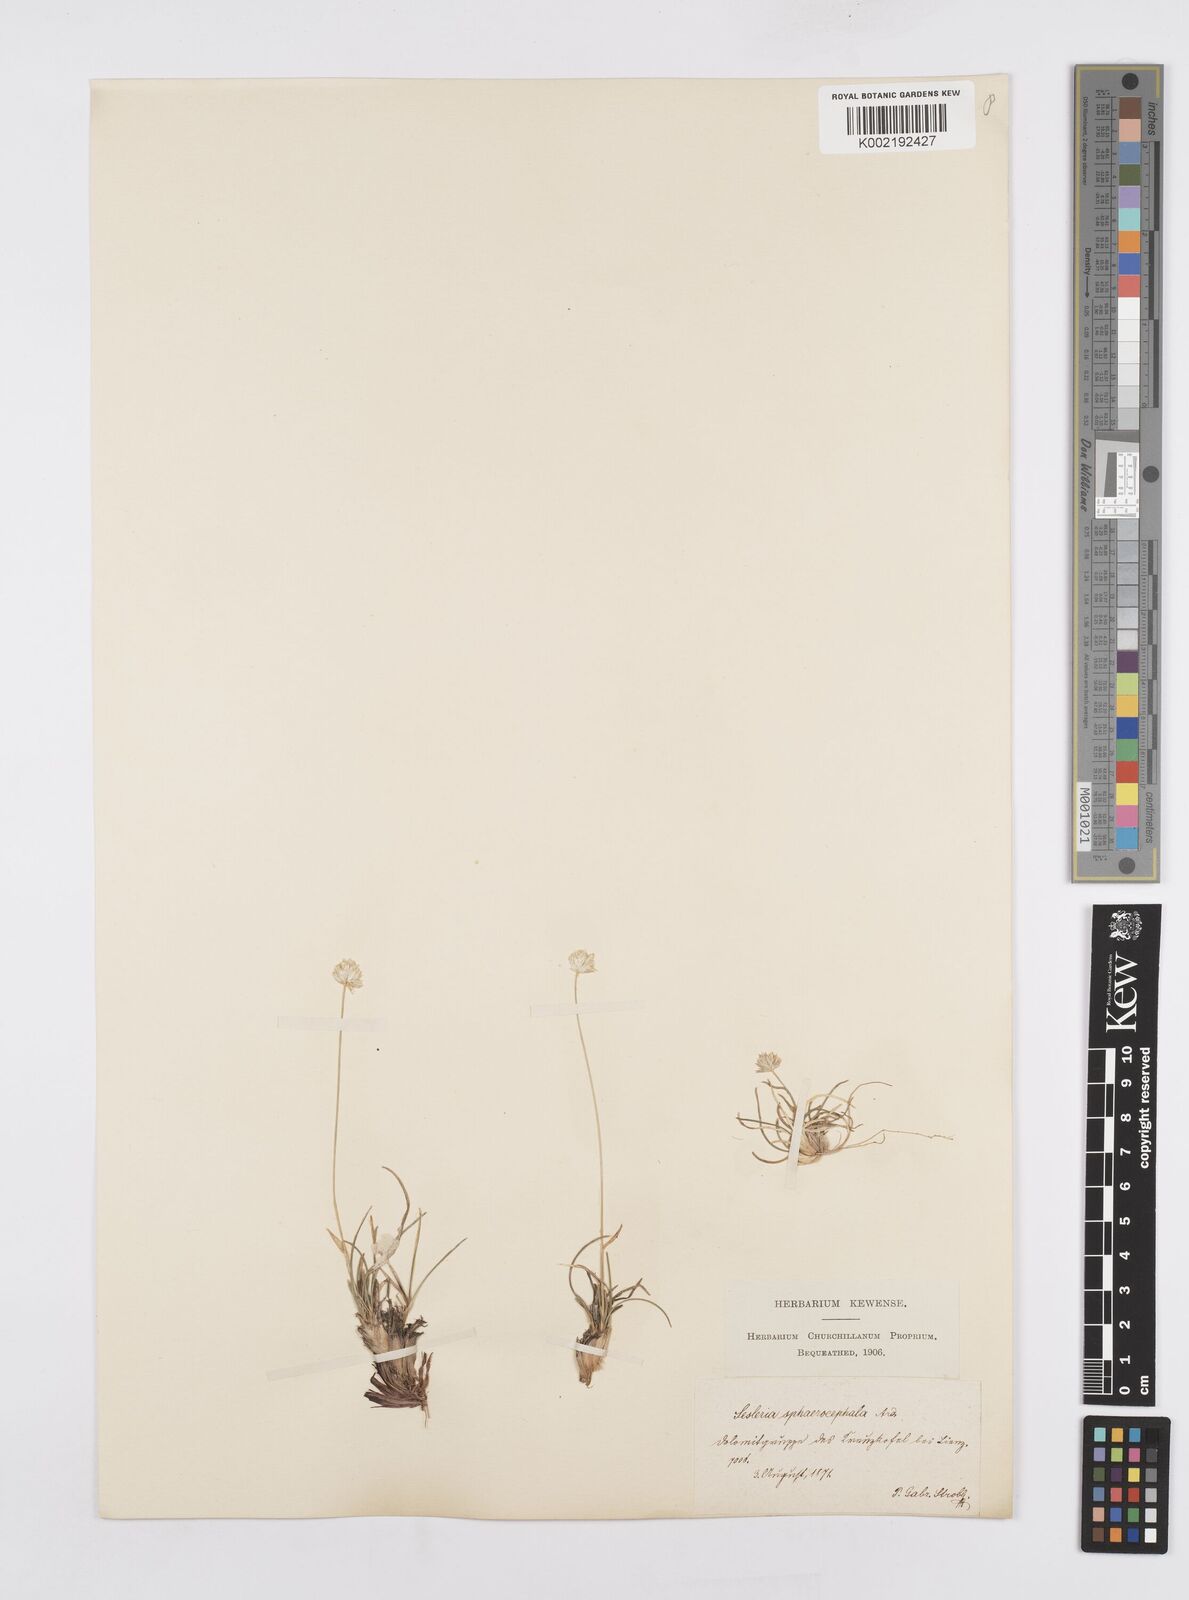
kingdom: Plantae
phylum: Tracheophyta
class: Liliopsida
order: Poales
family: Poaceae
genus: Sesleriella
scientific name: Sesleriella sphaerocephala
